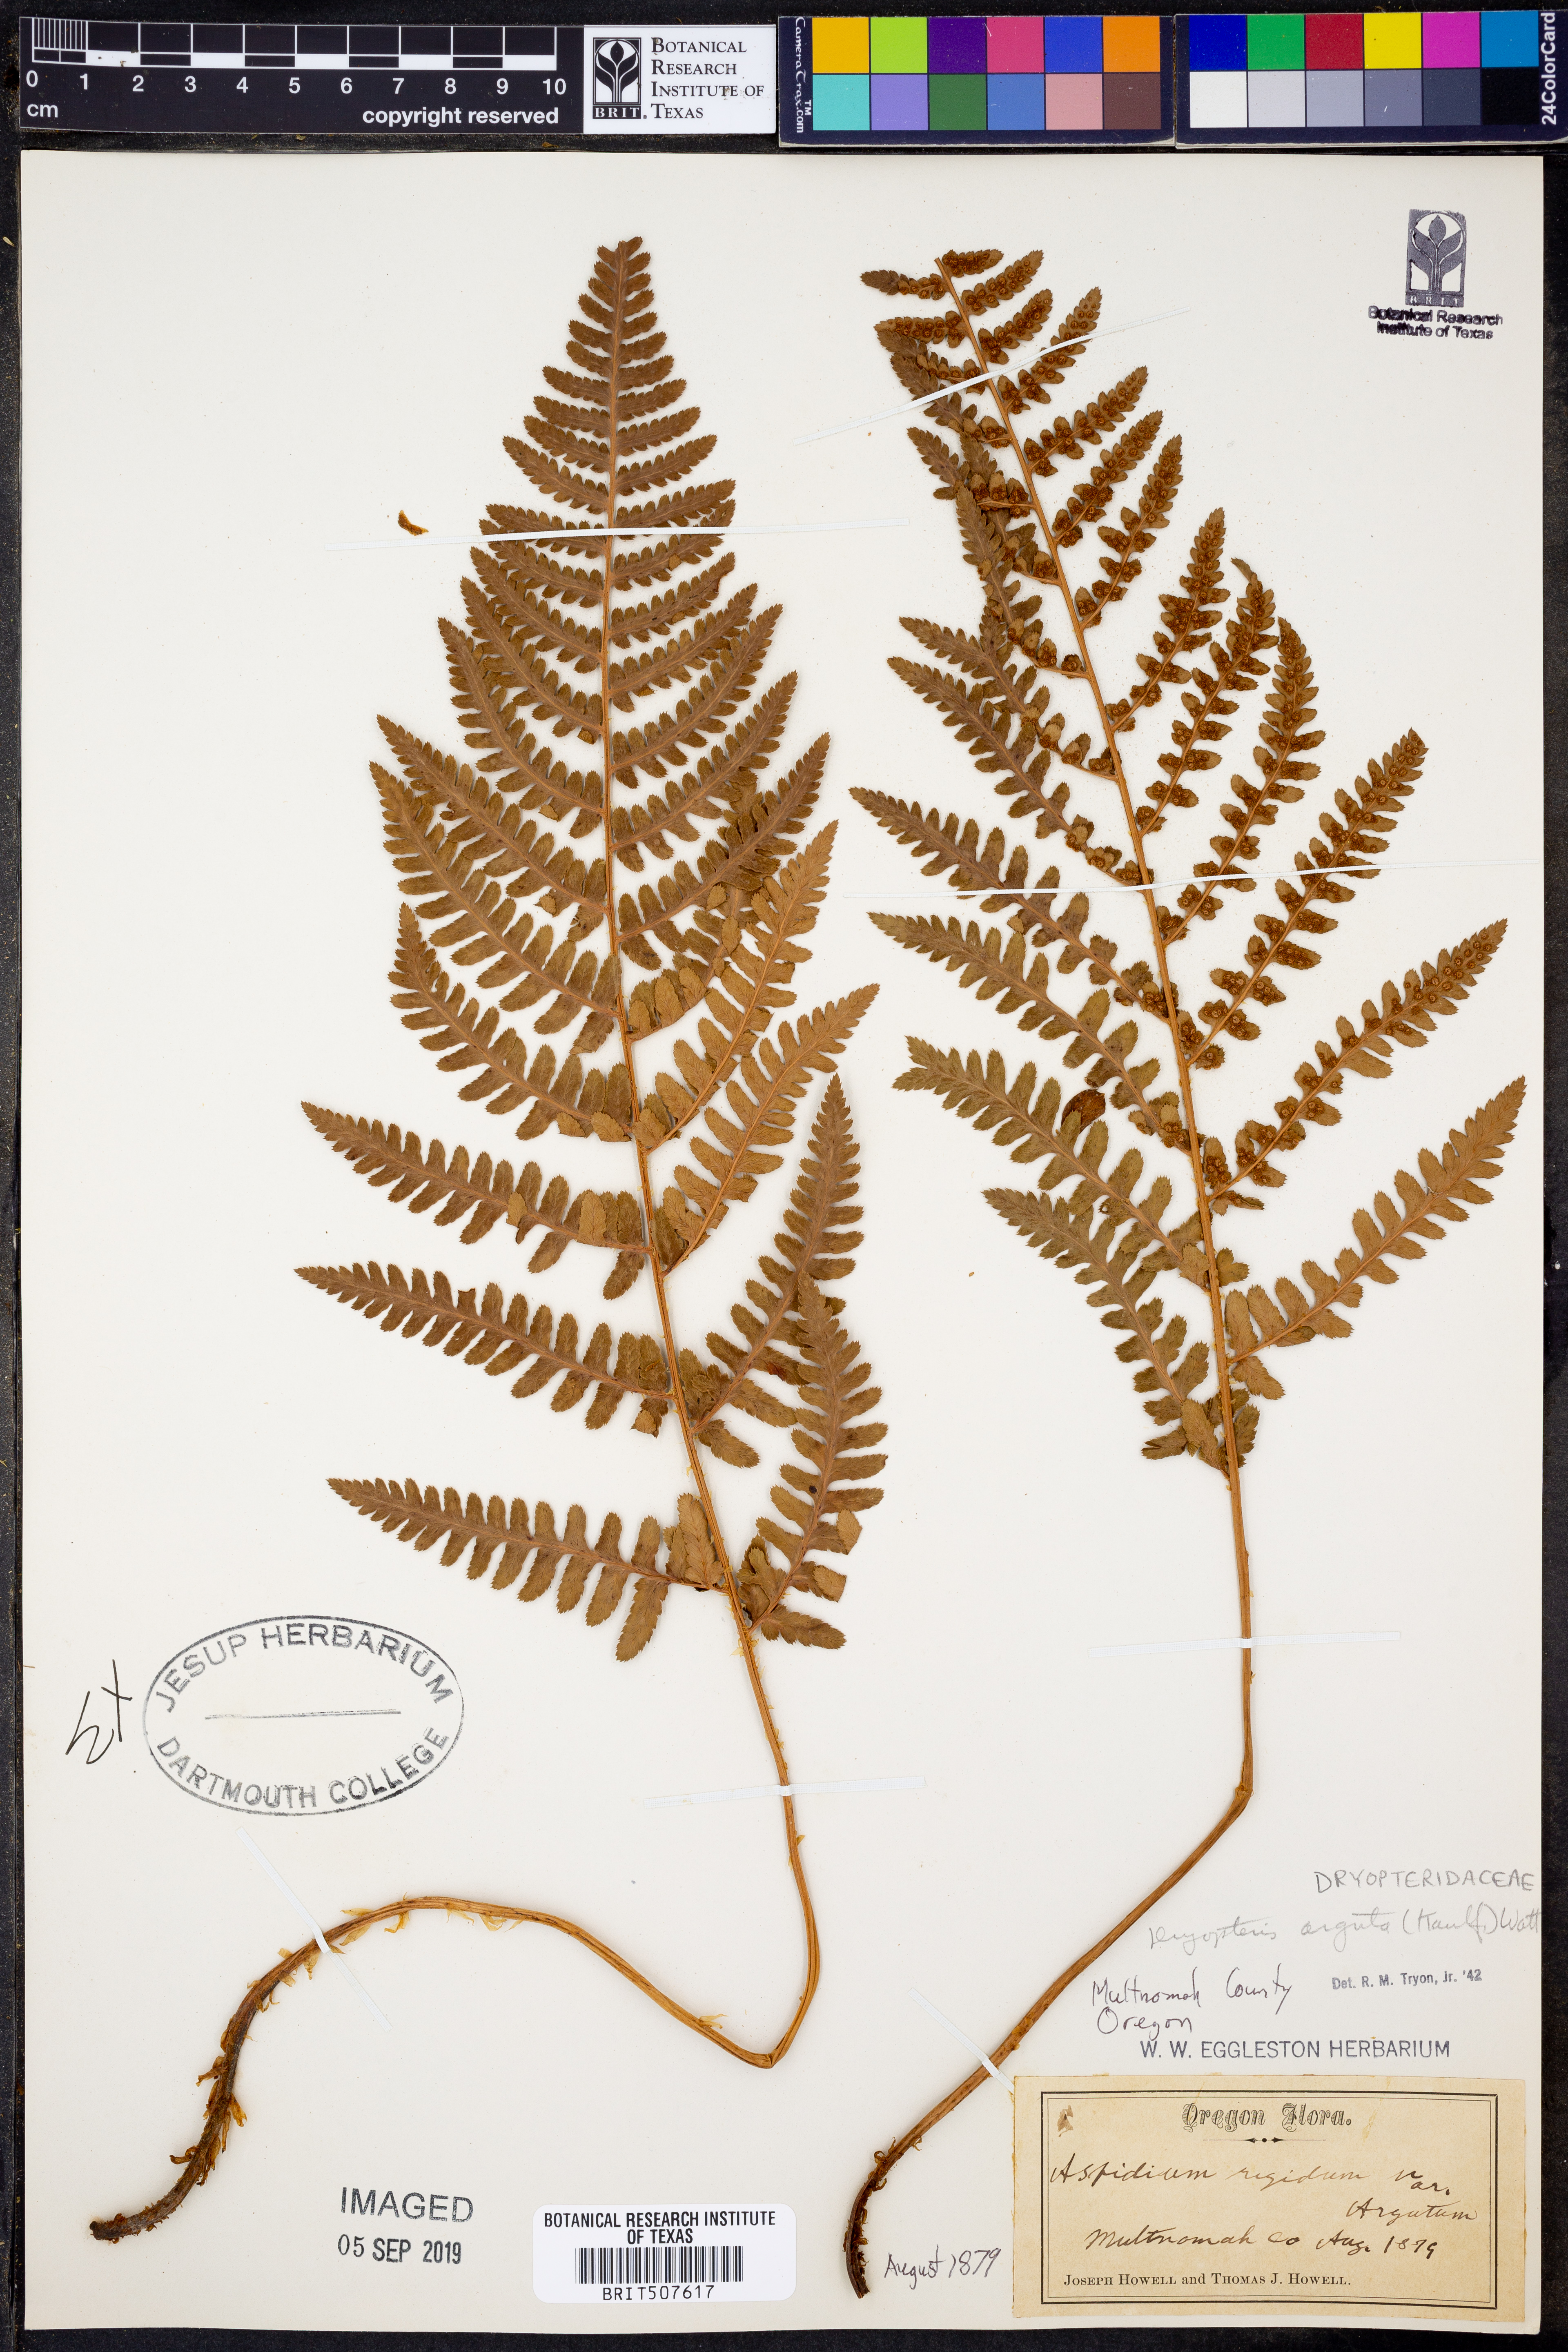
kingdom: Plantae
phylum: Tracheophyta
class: Polypodiopsida
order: Polypodiales
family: Dryopteridaceae
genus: Dryopteris
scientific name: Dryopteris arguta
